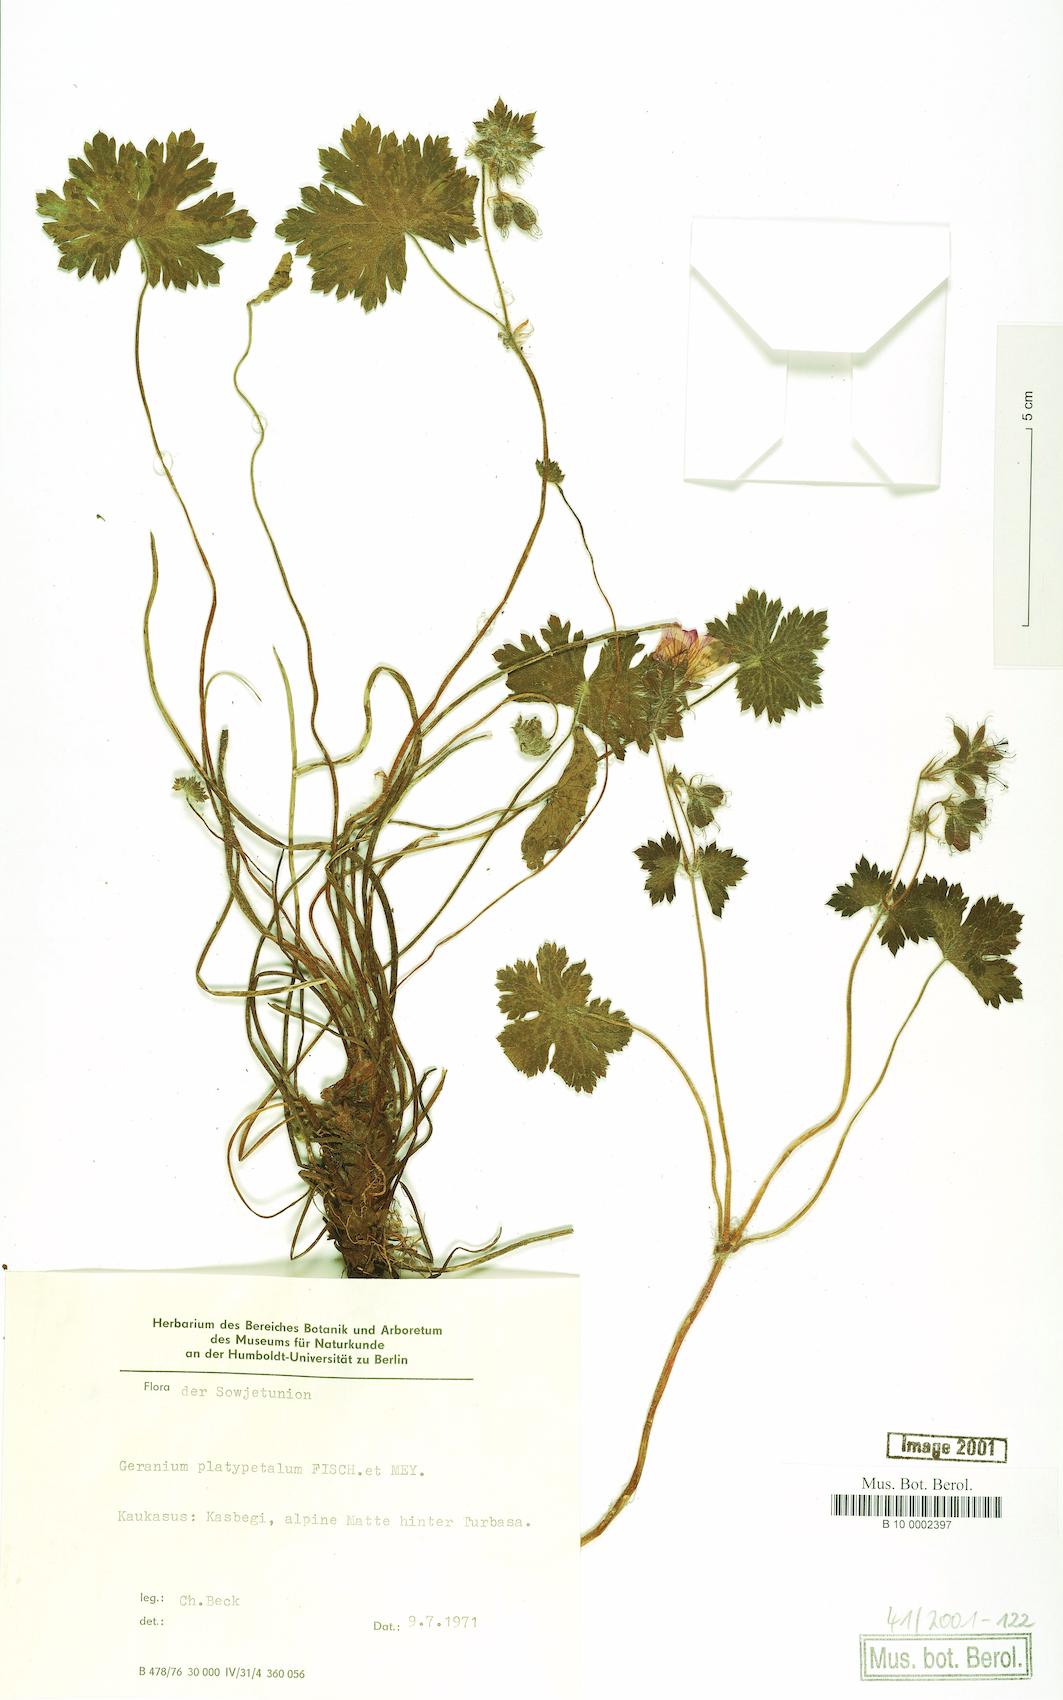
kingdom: Plantae
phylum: Tracheophyta
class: Magnoliopsida
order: Geraniales
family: Geraniaceae
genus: Geranium
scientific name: Geranium platypetalum
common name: Glandular crane's-bill
